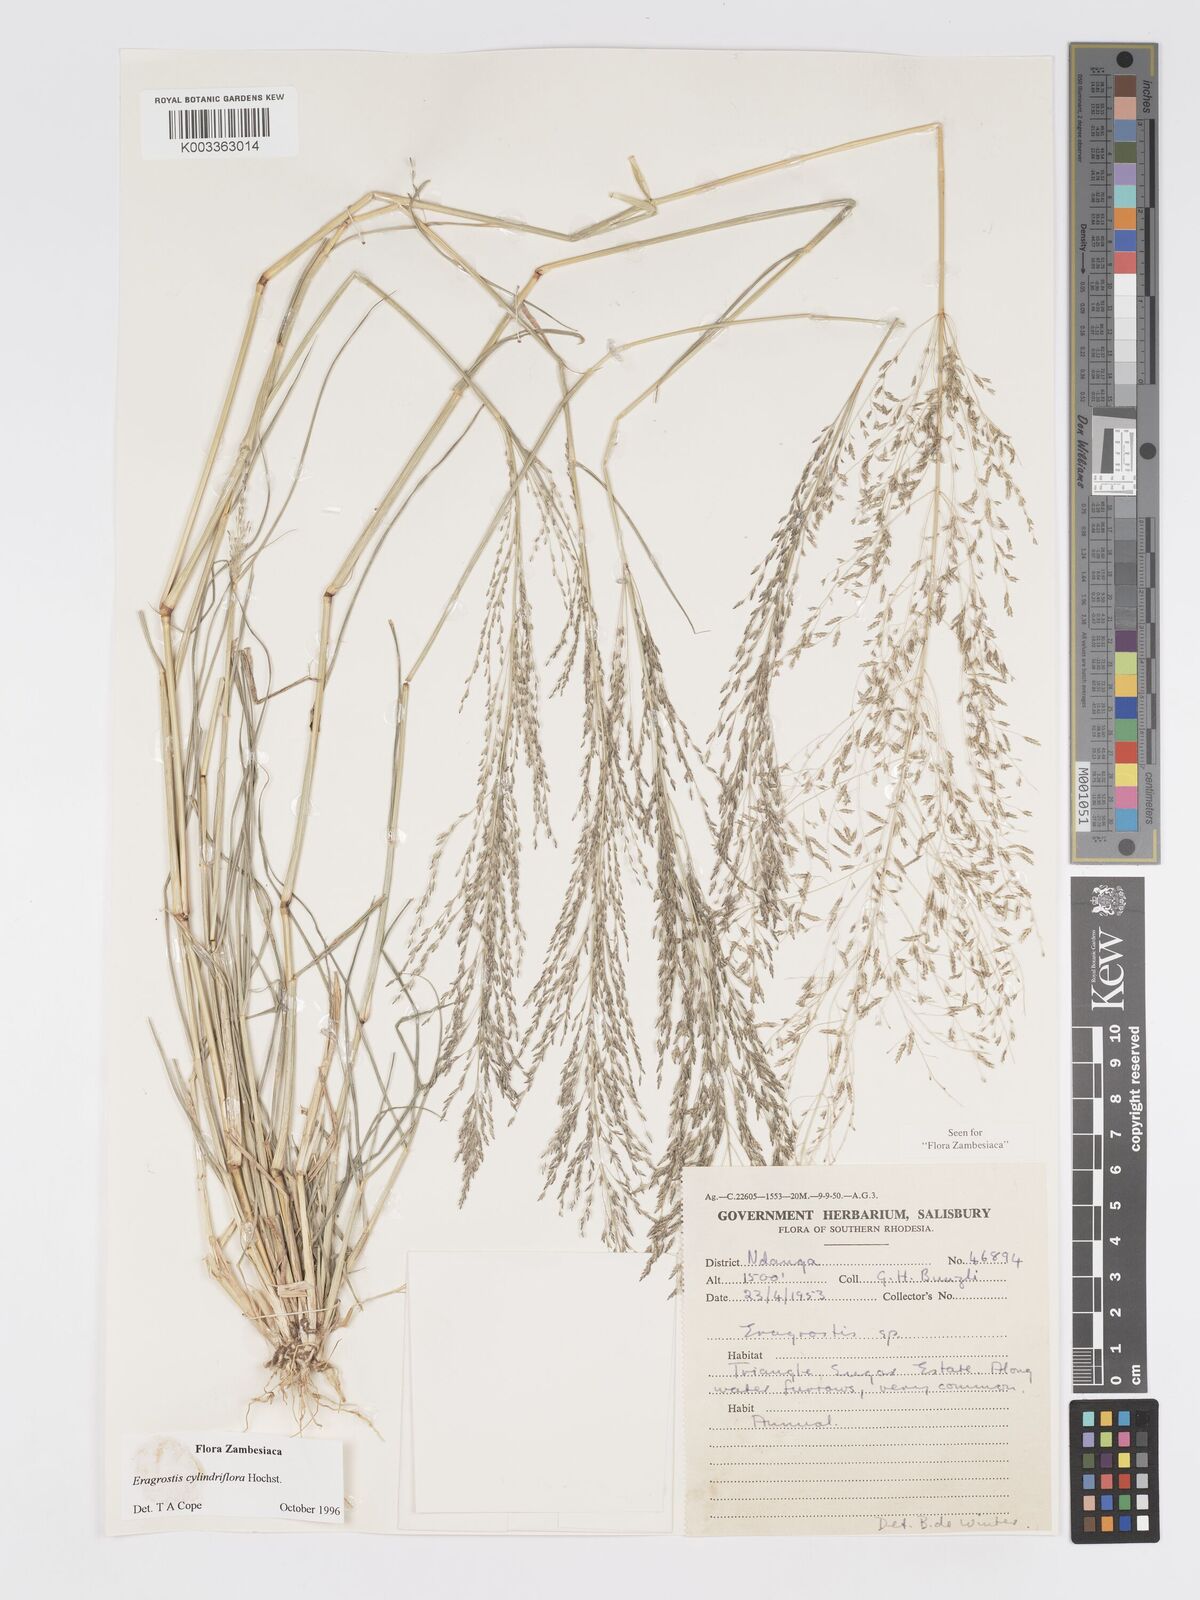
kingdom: Plantae
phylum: Tracheophyta
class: Liliopsida
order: Poales
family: Poaceae
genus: Eragrostis
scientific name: Eragrostis cylindriflora
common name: Cylinderflower lovegrass
